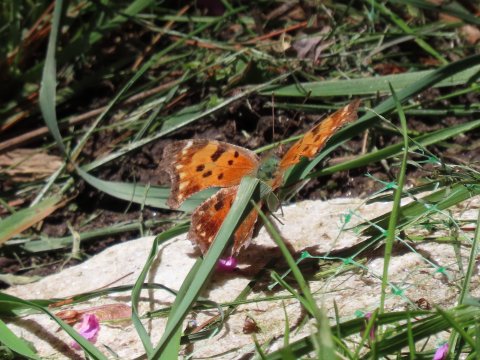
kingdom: Animalia
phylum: Arthropoda
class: Insecta
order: Lepidoptera
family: Nymphalidae
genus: Polygonia
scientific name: Polygonia comma
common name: Eastern Comma
